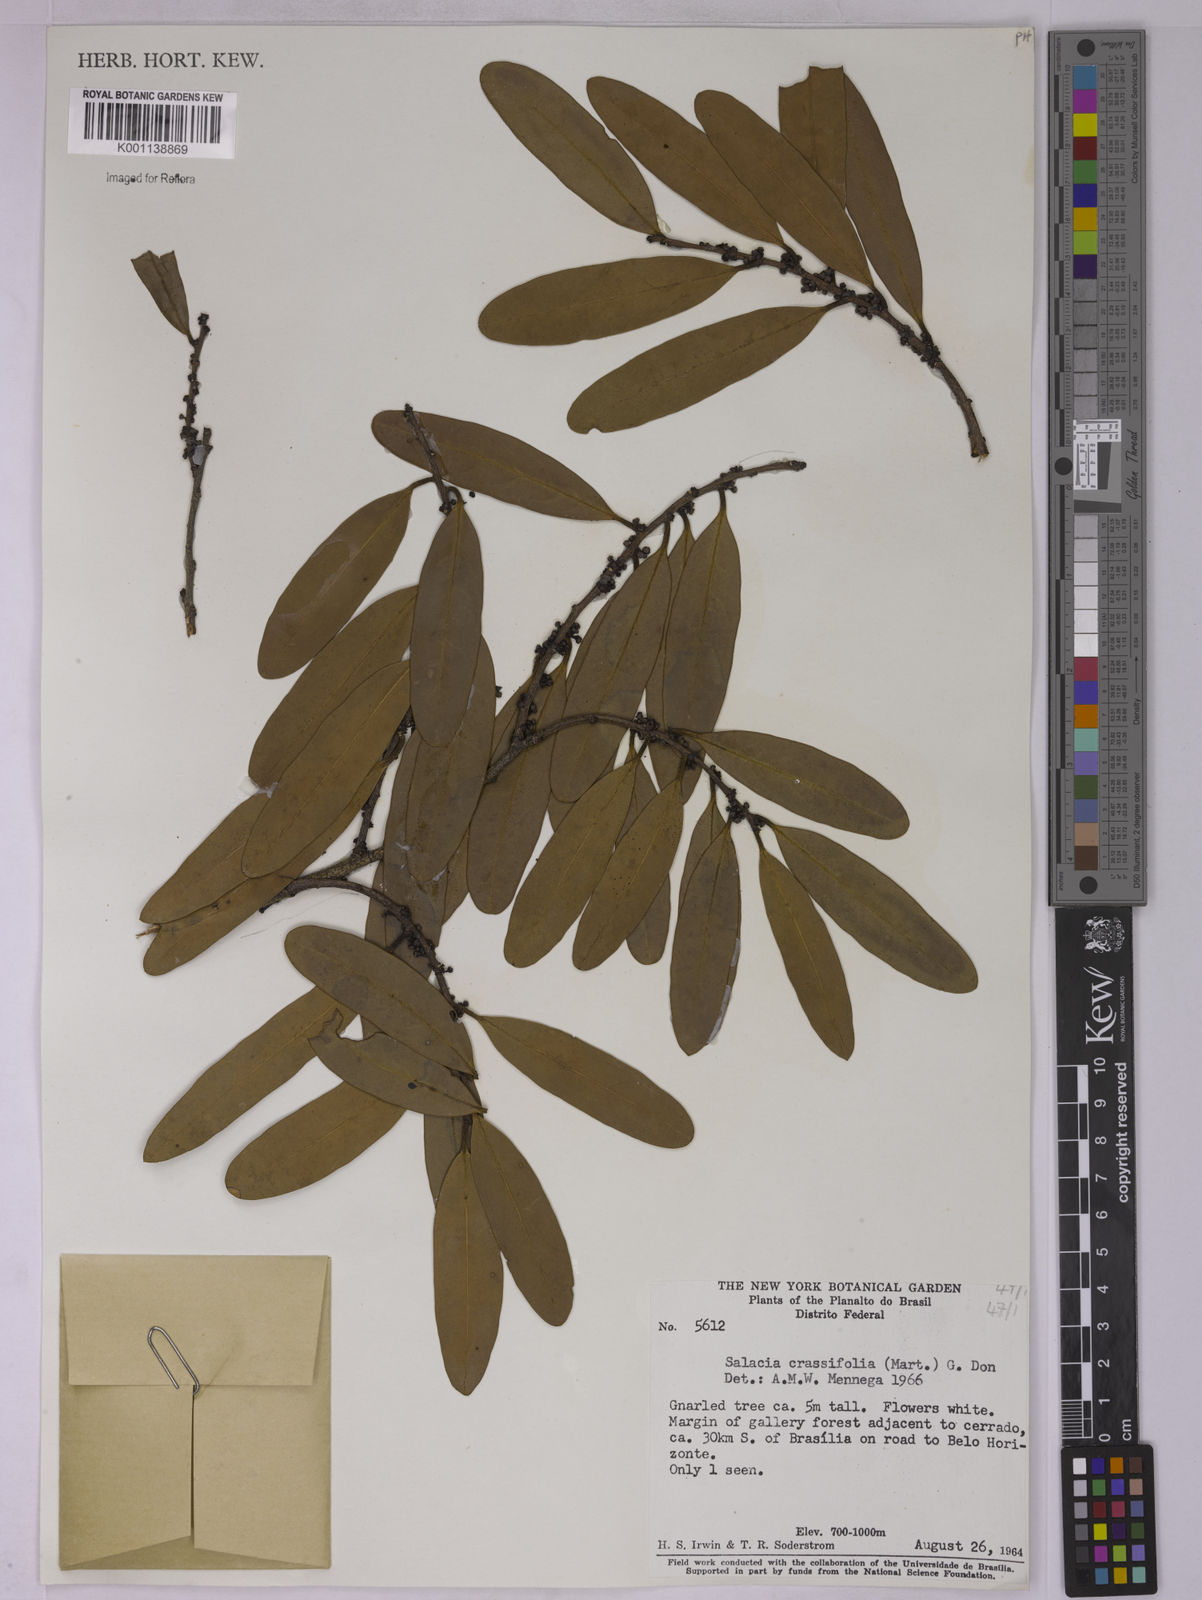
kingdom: Plantae
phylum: Tracheophyta
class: Magnoliopsida
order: Celastrales
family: Celastraceae
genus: Salacia
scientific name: Salacia crassifolia
